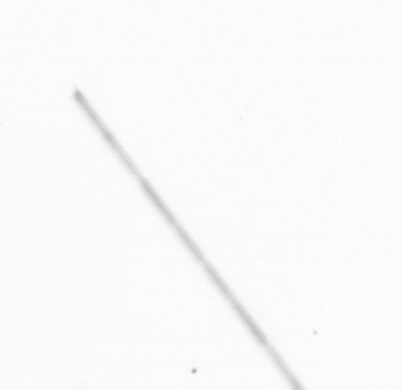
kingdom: Chromista
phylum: Ochrophyta
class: Bacillariophyceae
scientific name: Bacillariophyceae
